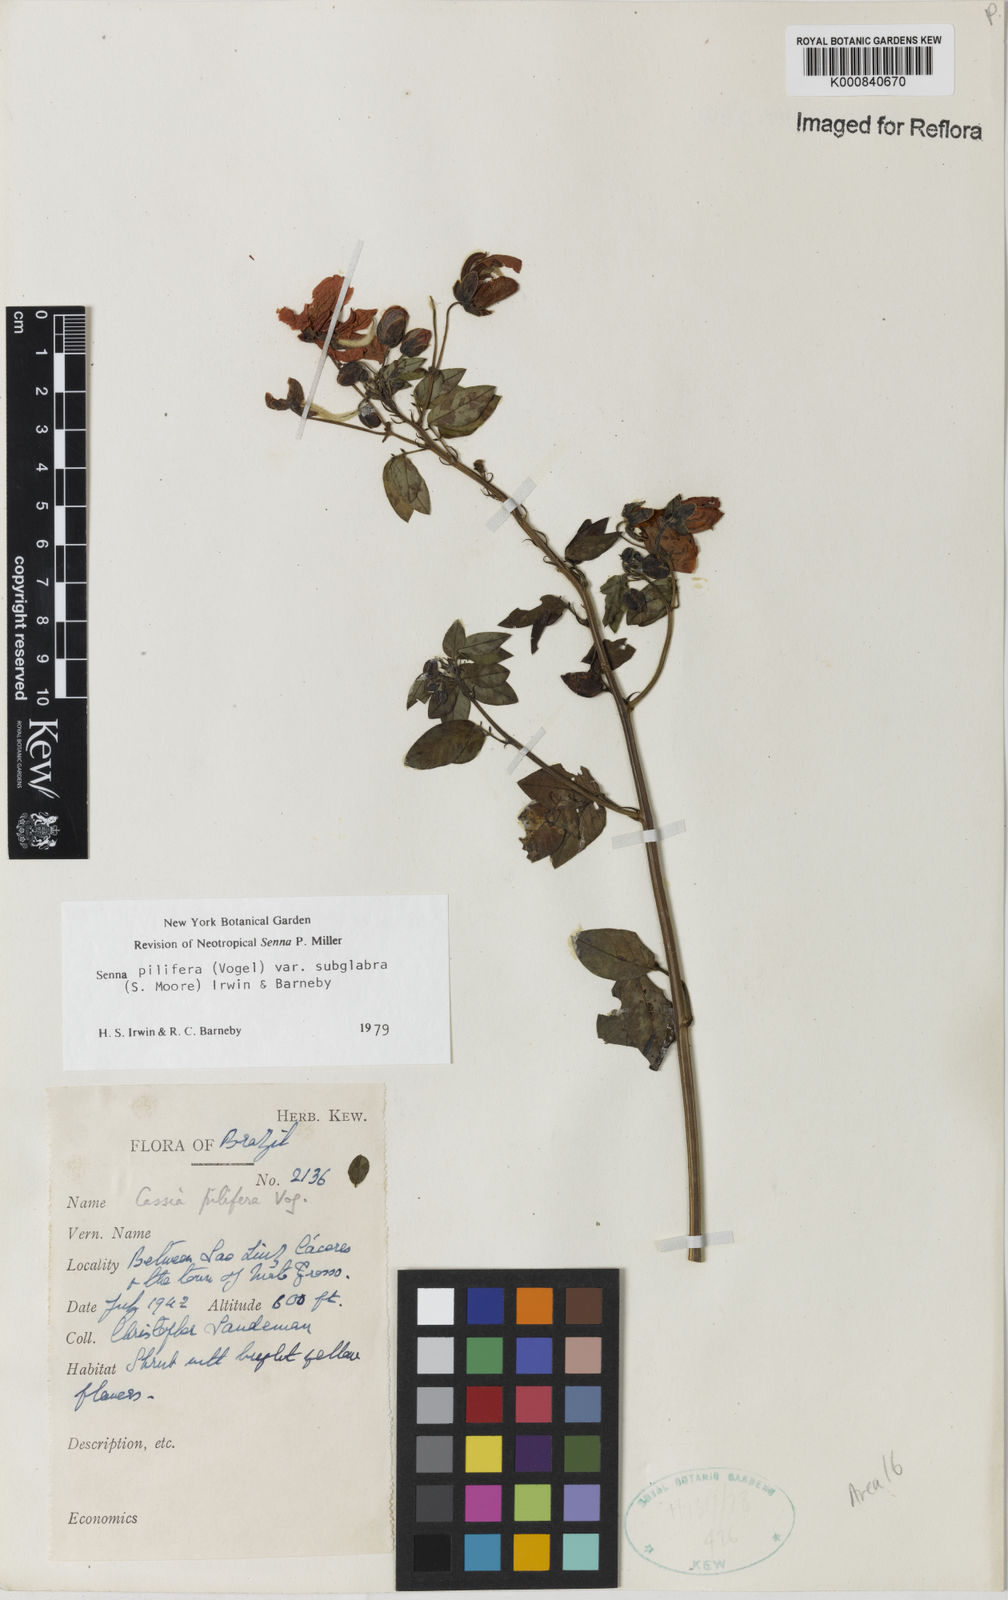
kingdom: Plantae
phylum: Tracheophyta
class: Magnoliopsida
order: Fabales
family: Fabaceae
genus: Senna
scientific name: Senna pilifera
